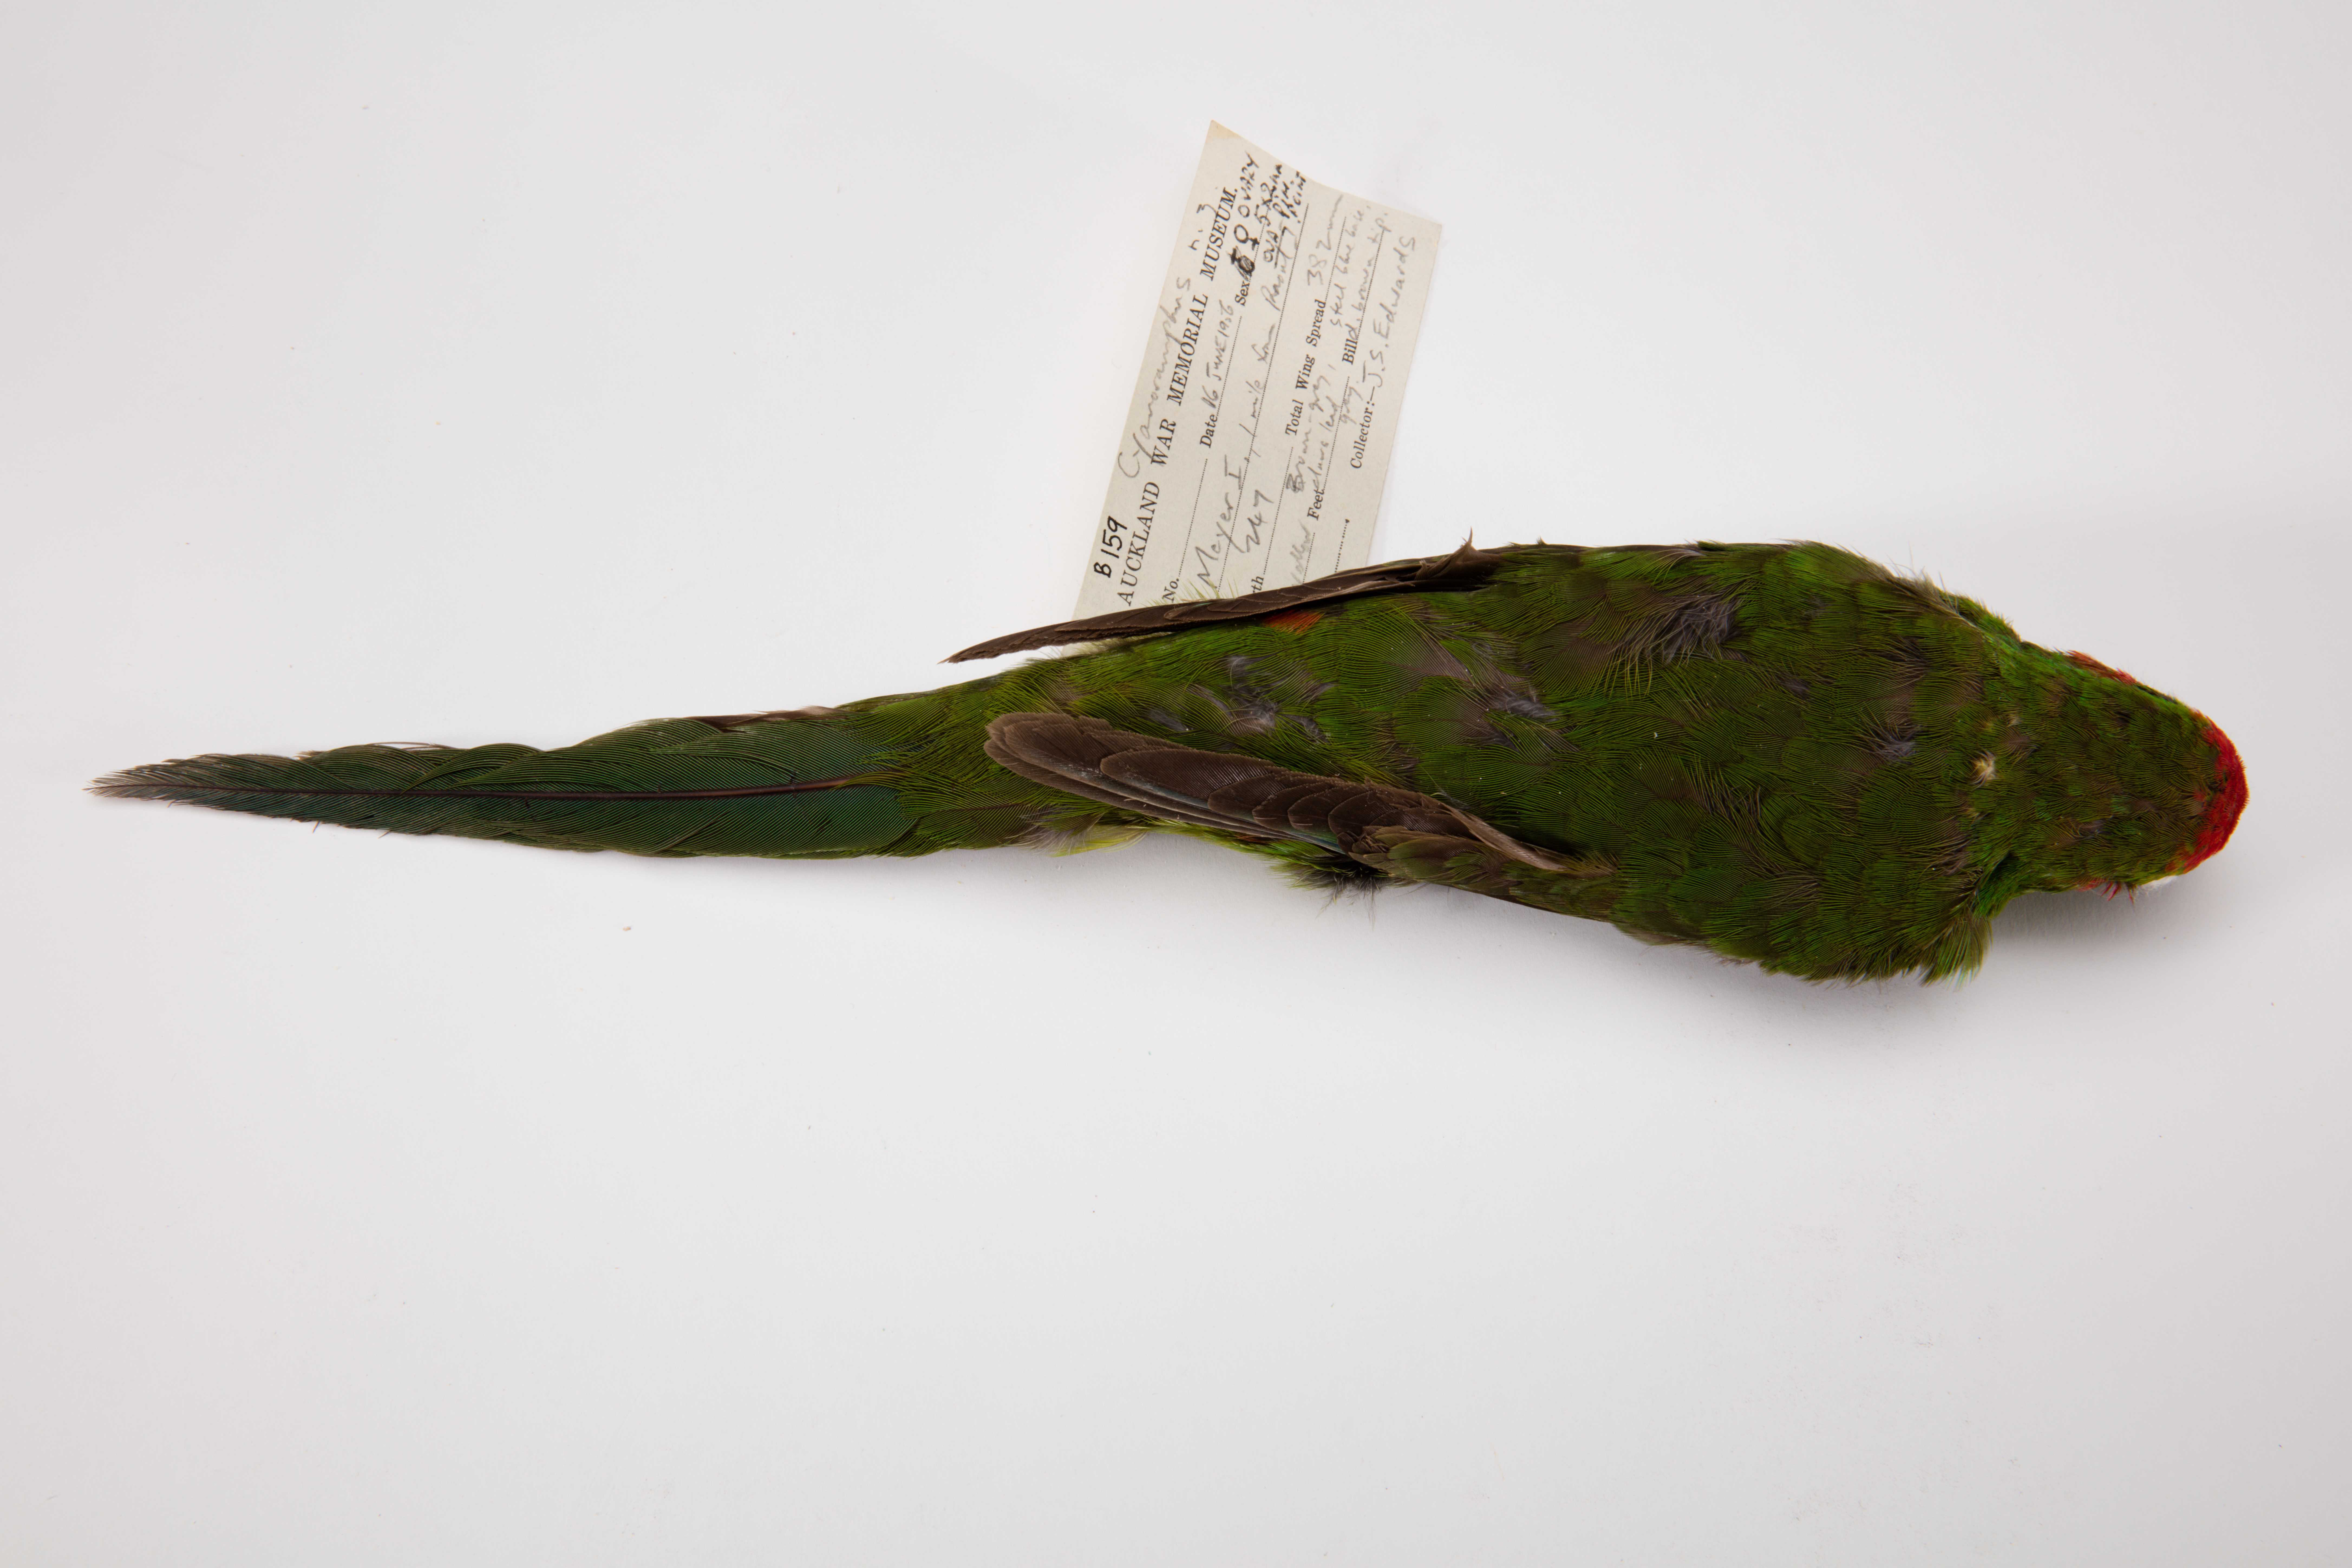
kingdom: Animalia
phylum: Chordata
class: Aves
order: Psittaciformes
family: Psittacidae
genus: Cyanoramphus
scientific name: Cyanoramphus novaezelandiae
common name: Red-fronted parakeet
